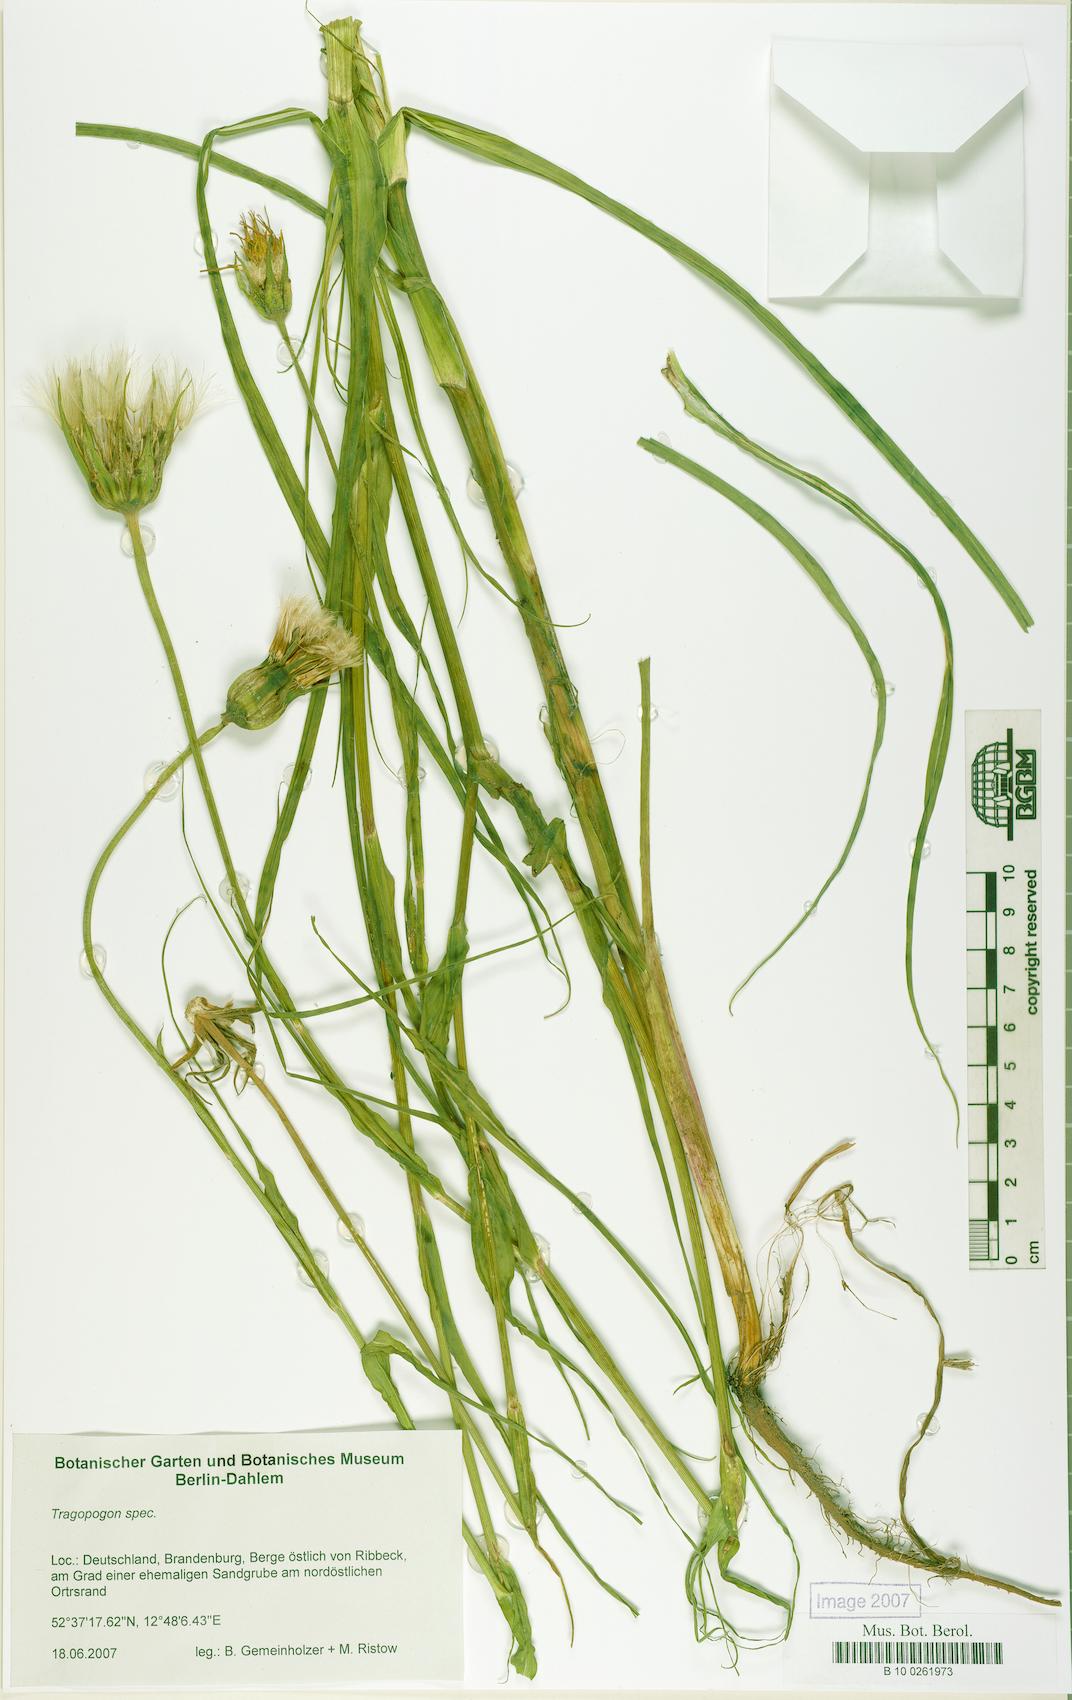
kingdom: Plantae
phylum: Tracheophyta
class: Magnoliopsida
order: Asterales
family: Asteraceae
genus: Tragopogon
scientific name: Tragopogon
